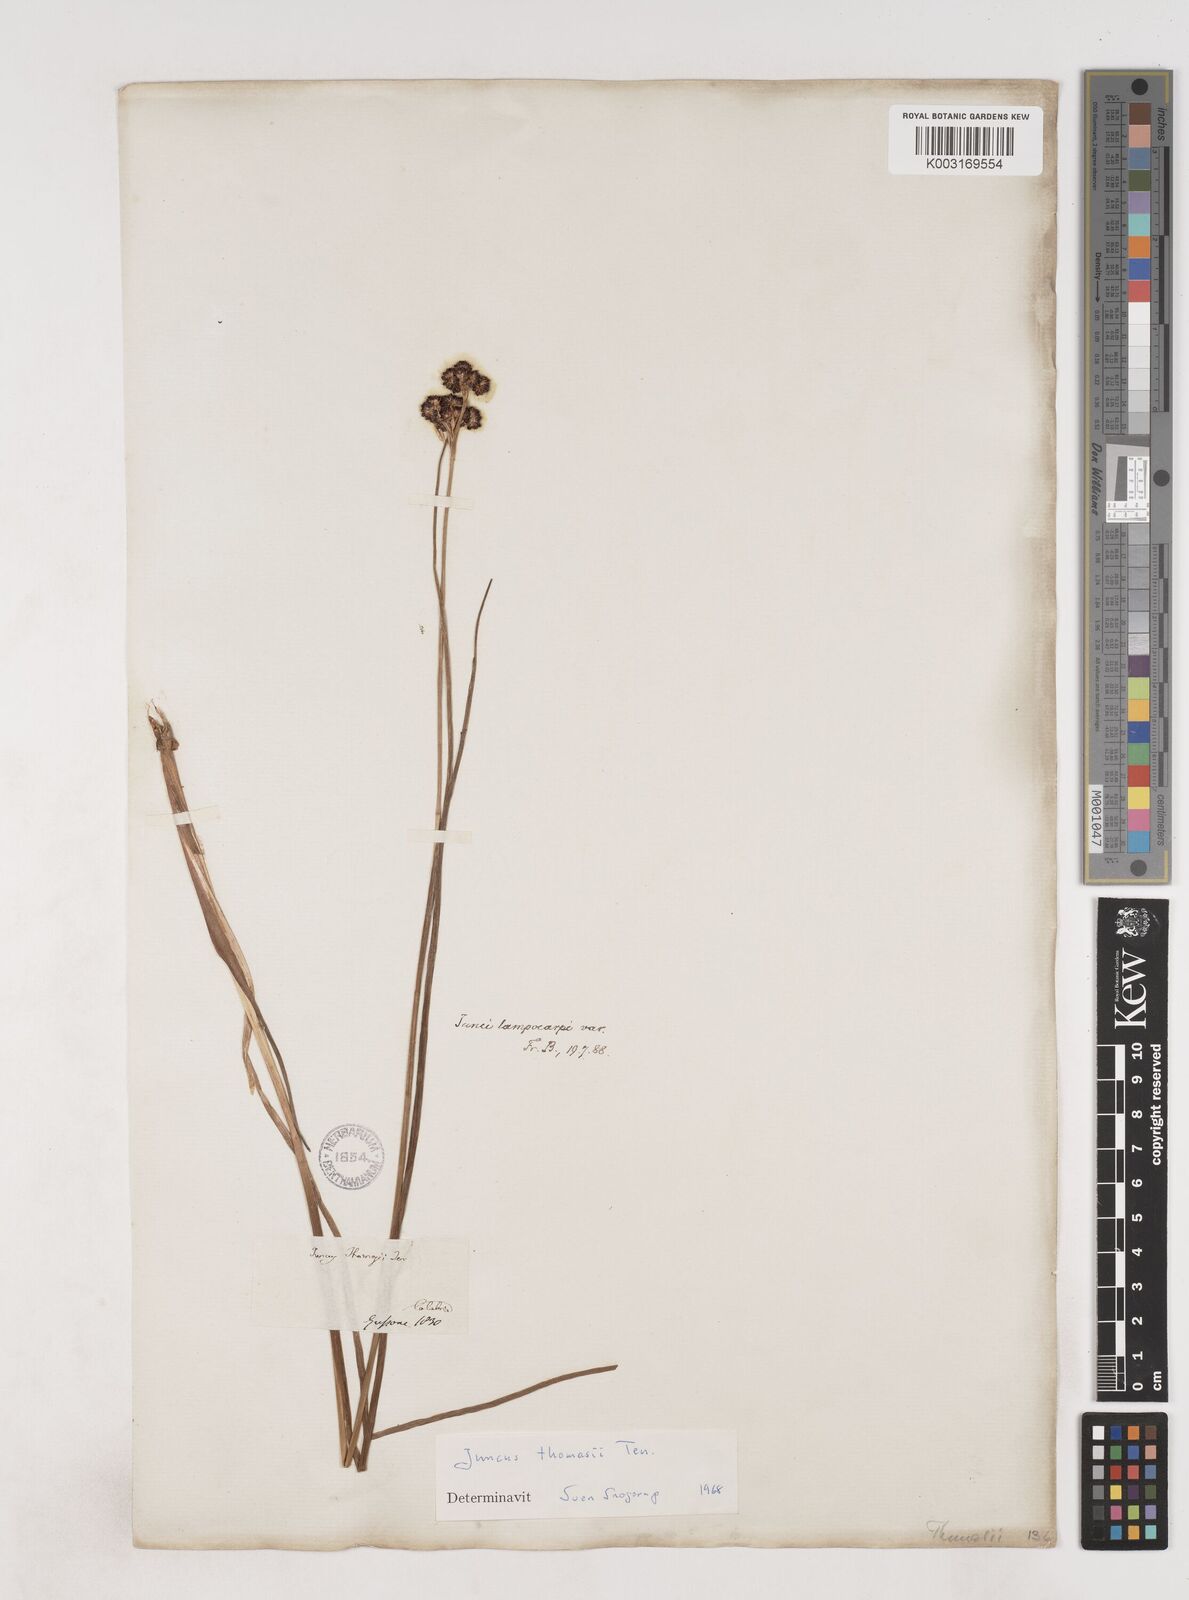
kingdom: Plantae
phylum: Tracheophyta
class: Liliopsida
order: Poales
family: Juncaceae
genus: Juncus
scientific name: Juncus thomasii
